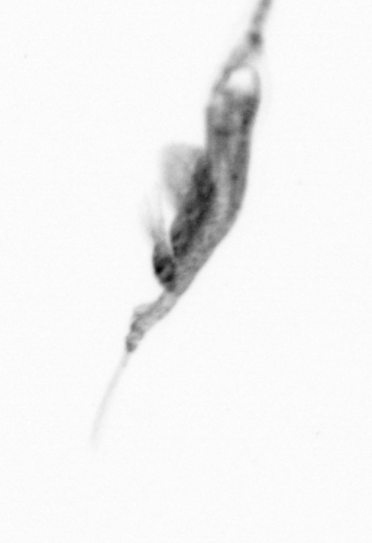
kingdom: Animalia
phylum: Arthropoda
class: Copepoda
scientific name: Copepoda
